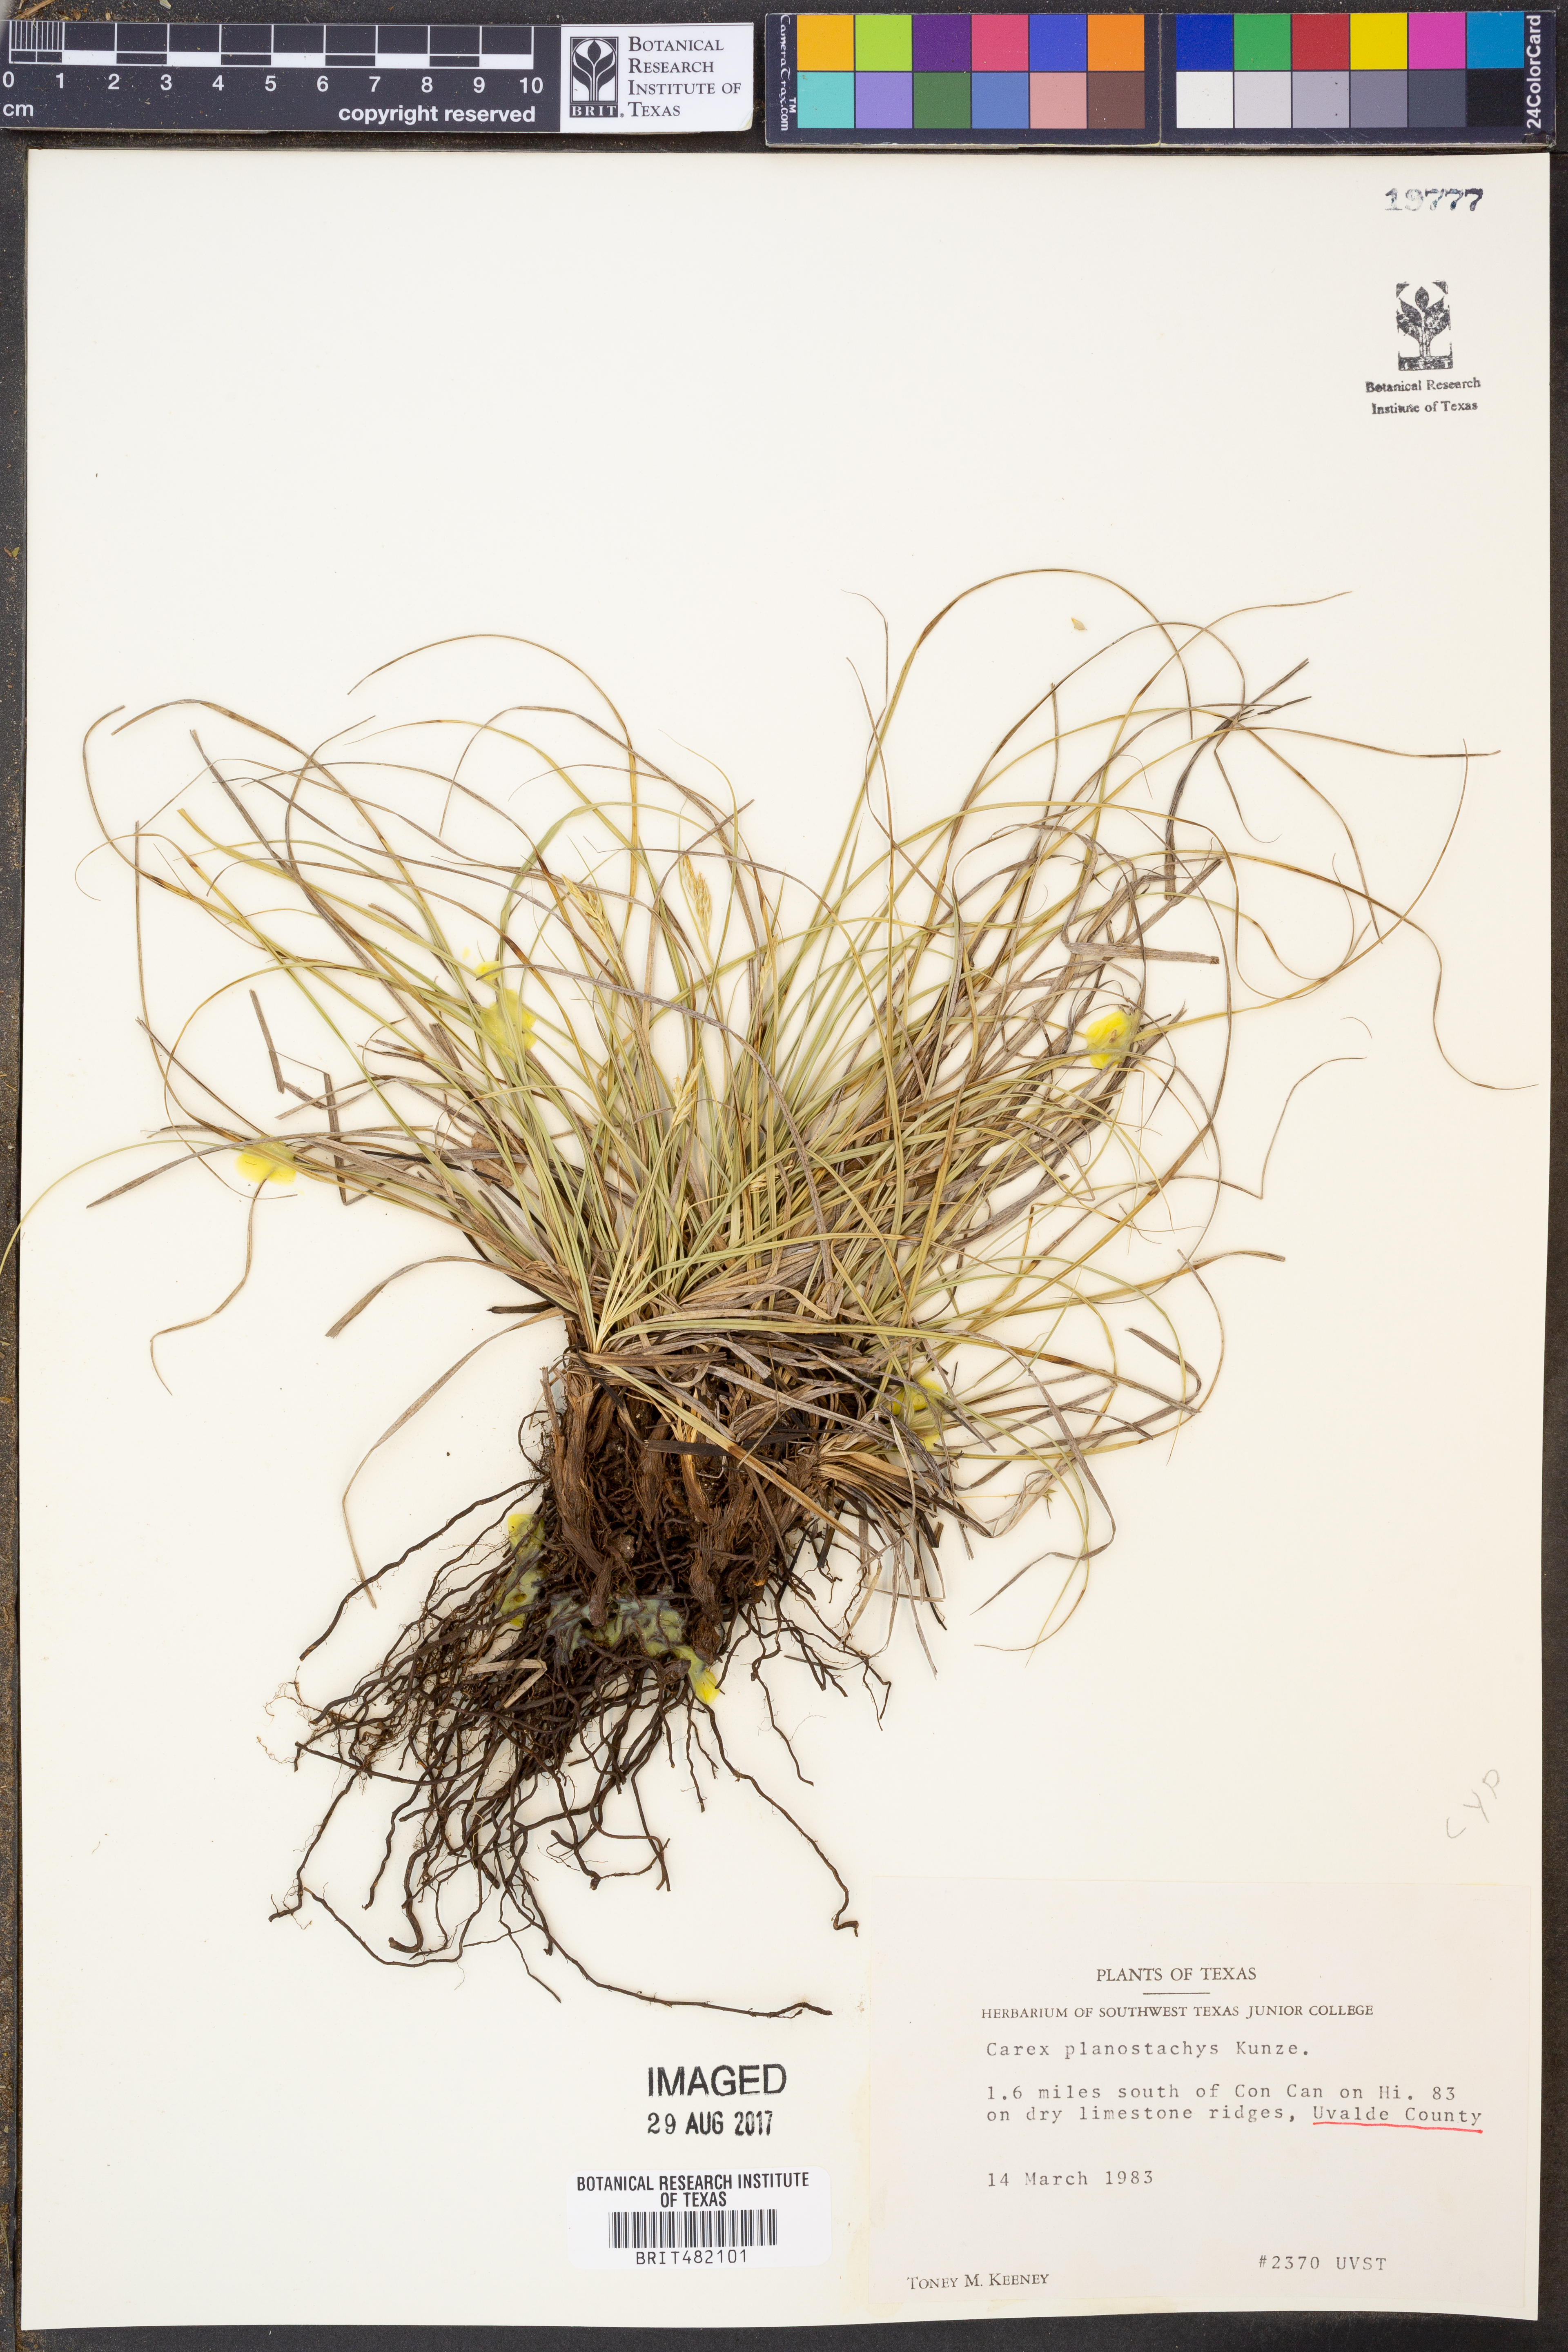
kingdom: Plantae
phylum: Tracheophyta
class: Liliopsida
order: Poales
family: Cyperaceae
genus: Carex
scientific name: Carex planostachys
